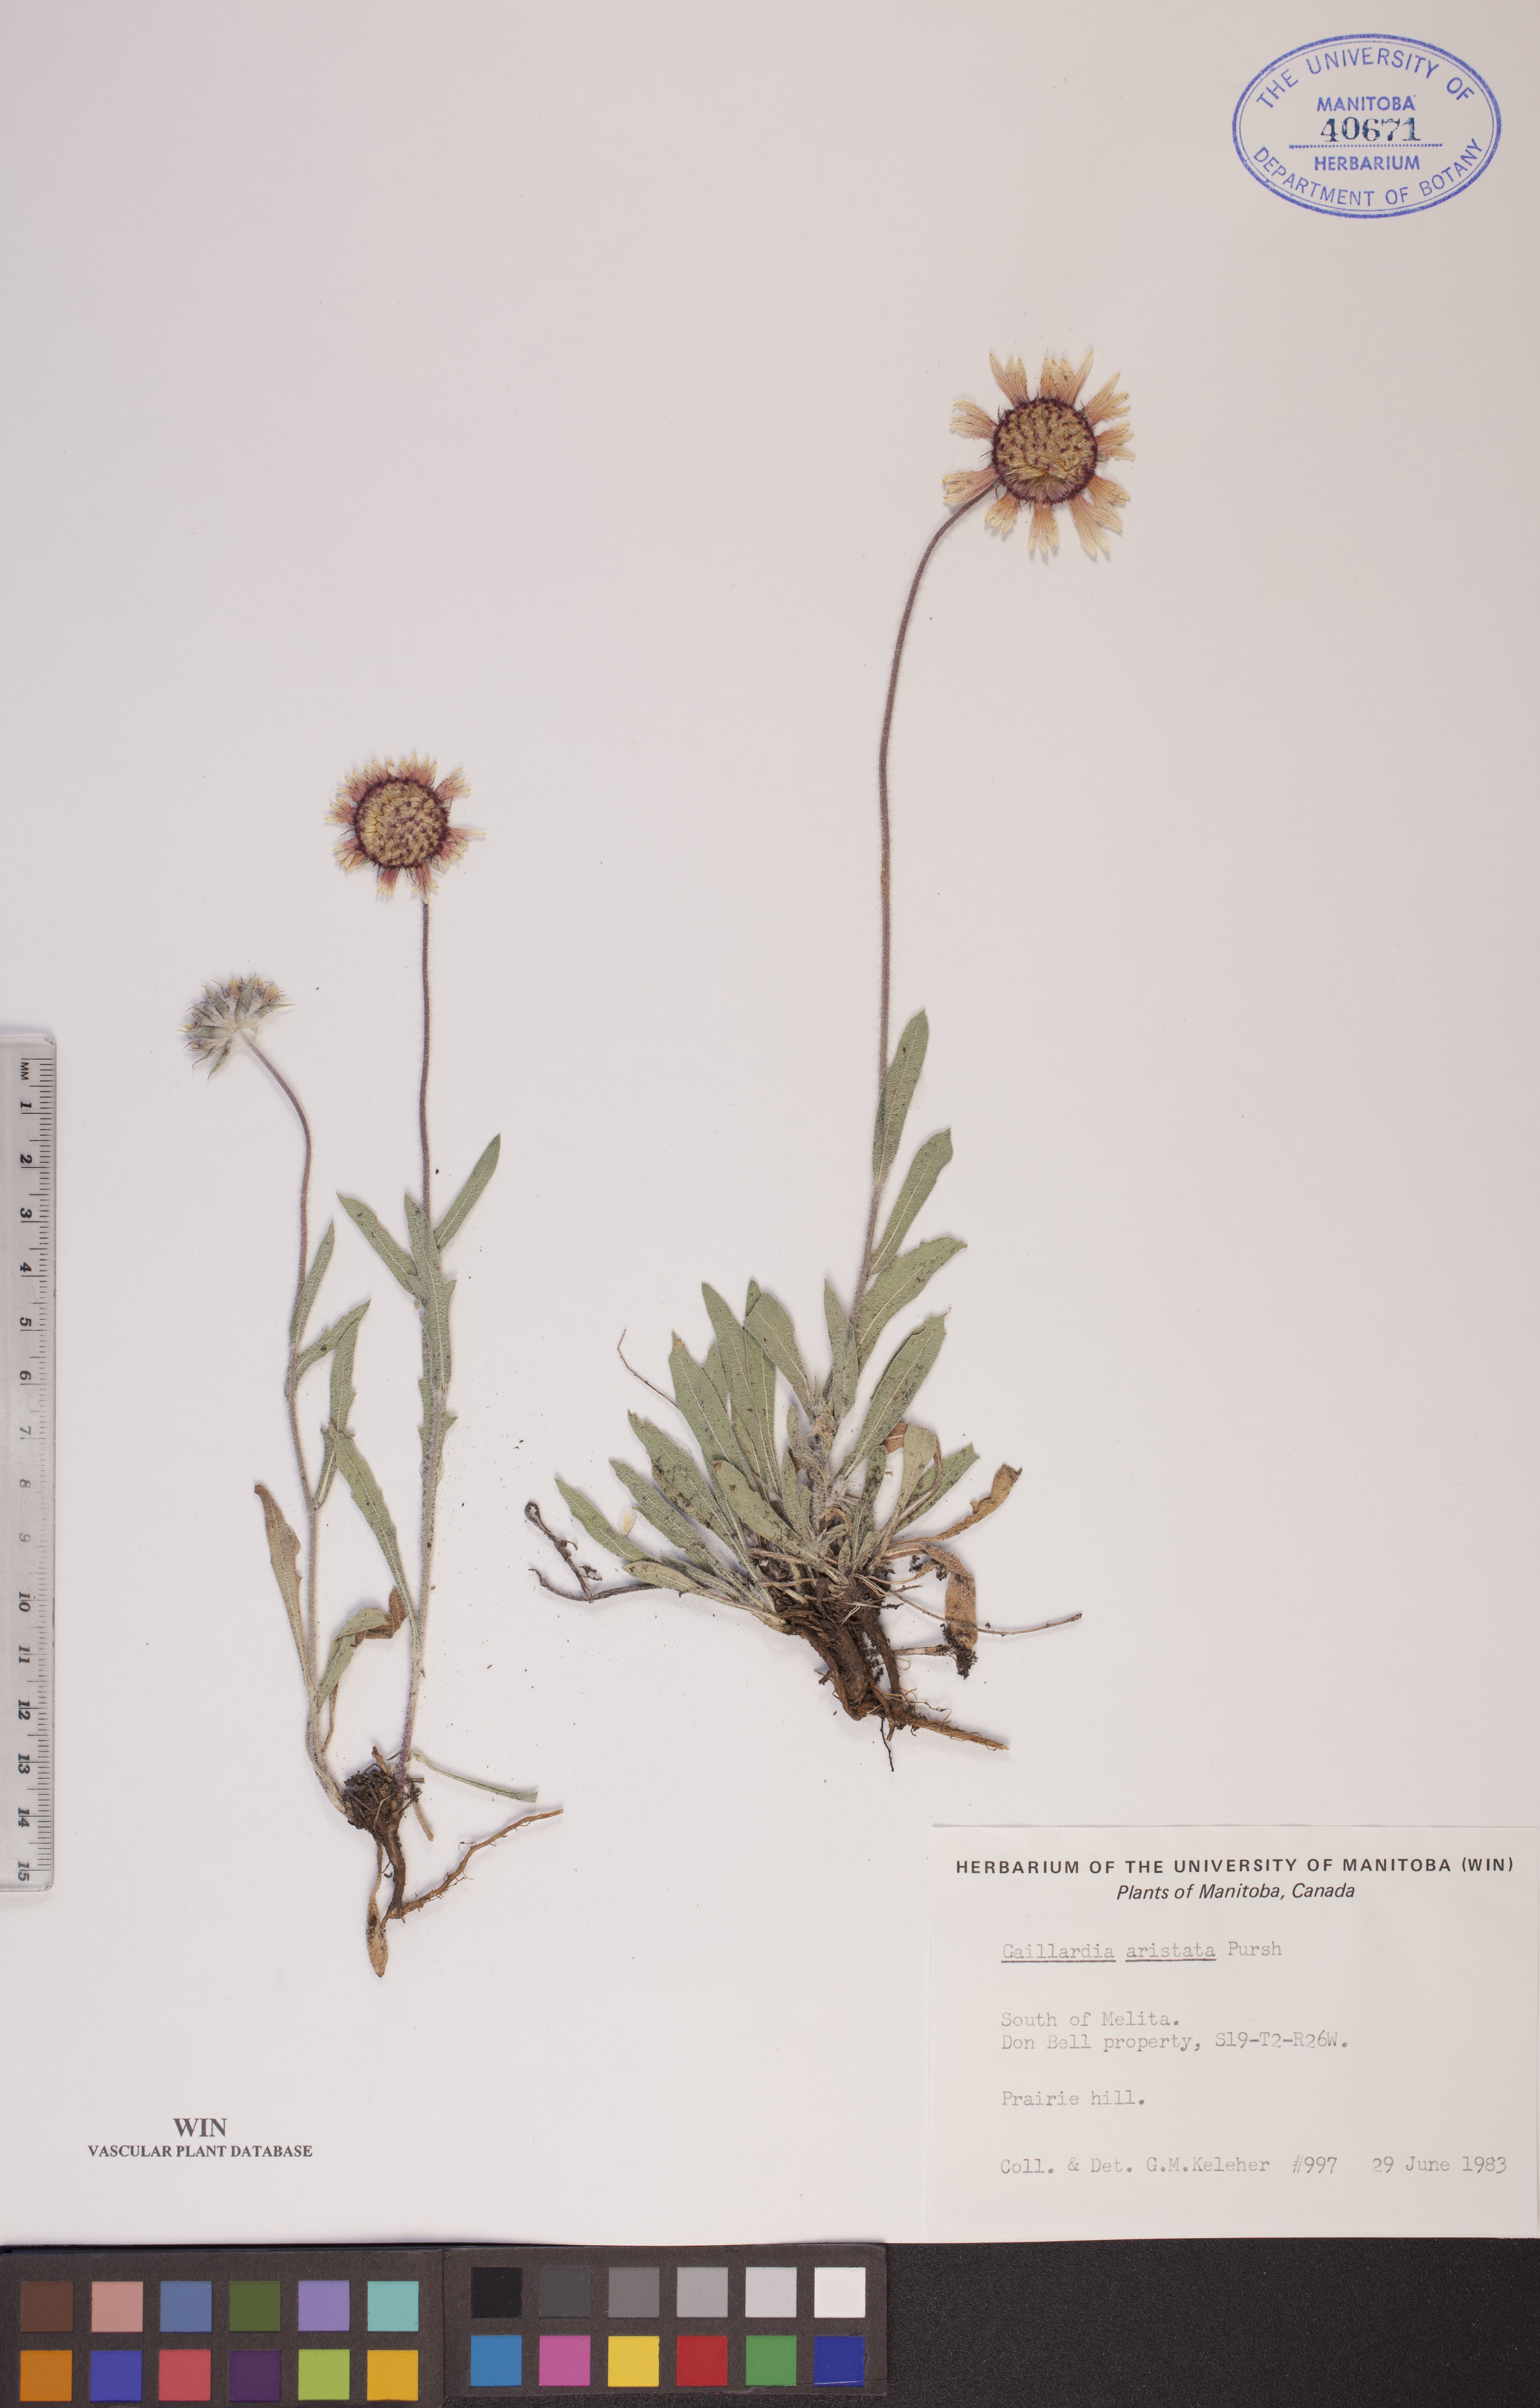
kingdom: Plantae
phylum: Tracheophyta
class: Magnoliopsida
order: Asterales
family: Asteraceae
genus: Gaillardia
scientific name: Gaillardia aristata
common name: Blanket-flower
